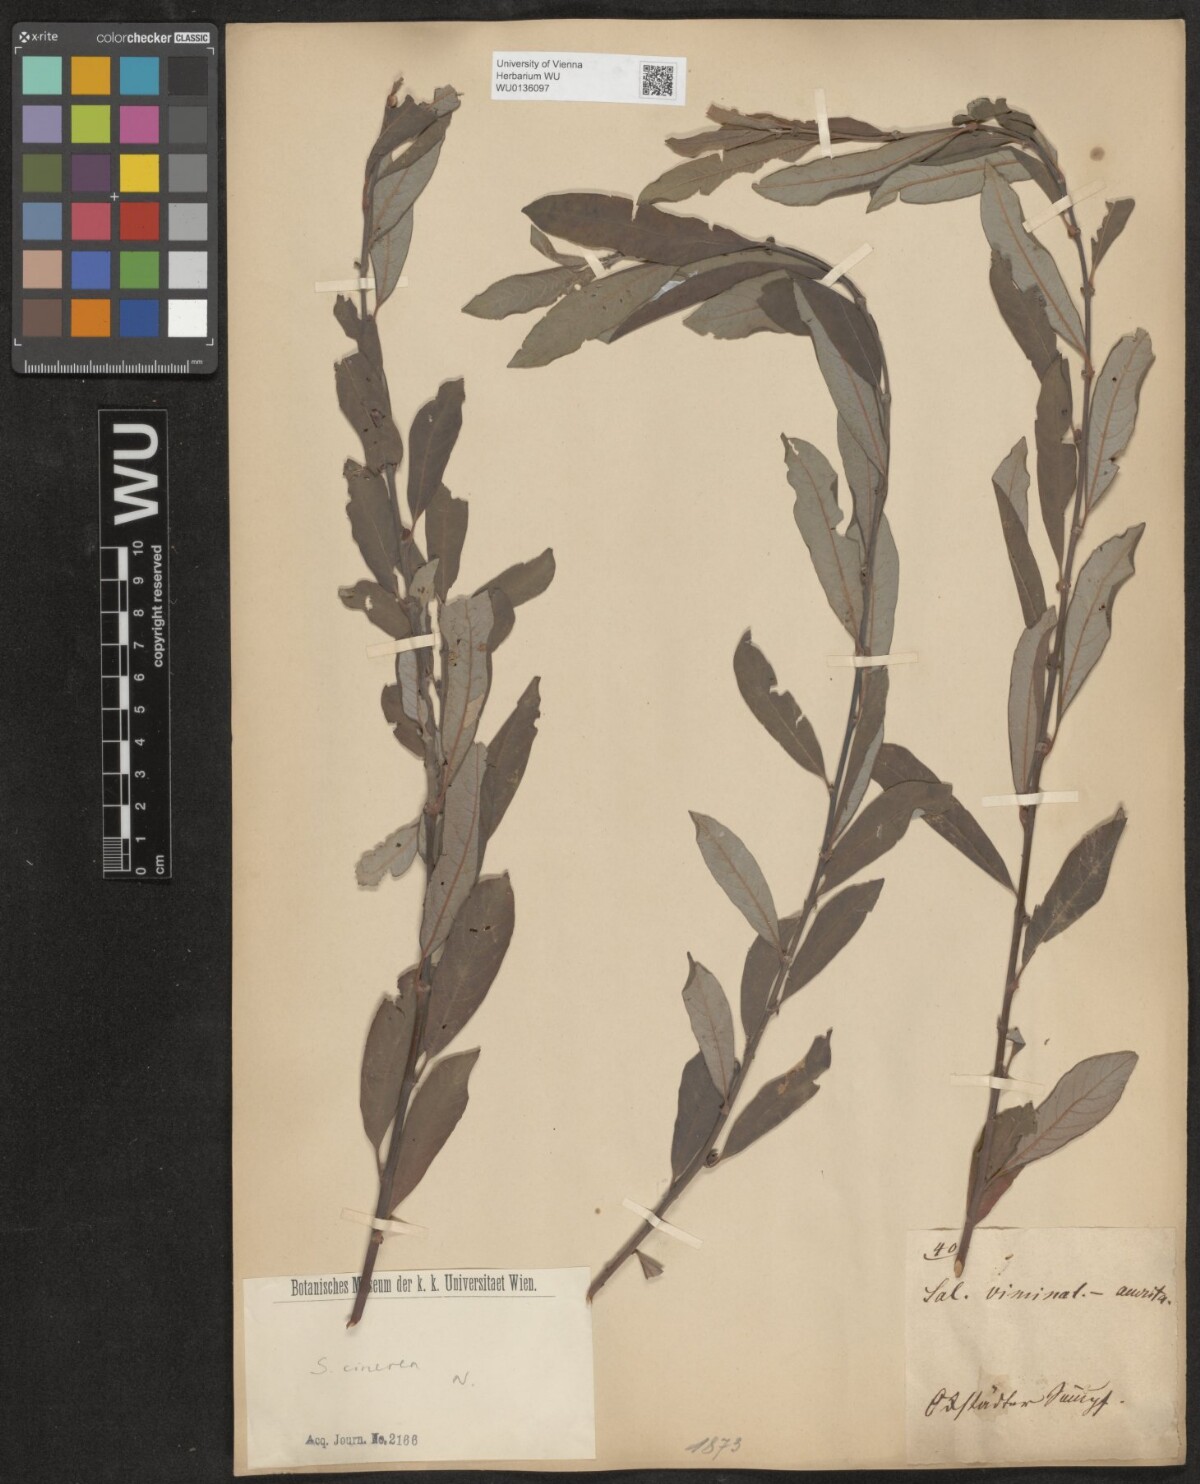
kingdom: Plantae
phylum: Tracheophyta
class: Magnoliopsida
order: Malpighiales
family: Salicaceae
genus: Salix
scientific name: Salix cinerea
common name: Common sallow
